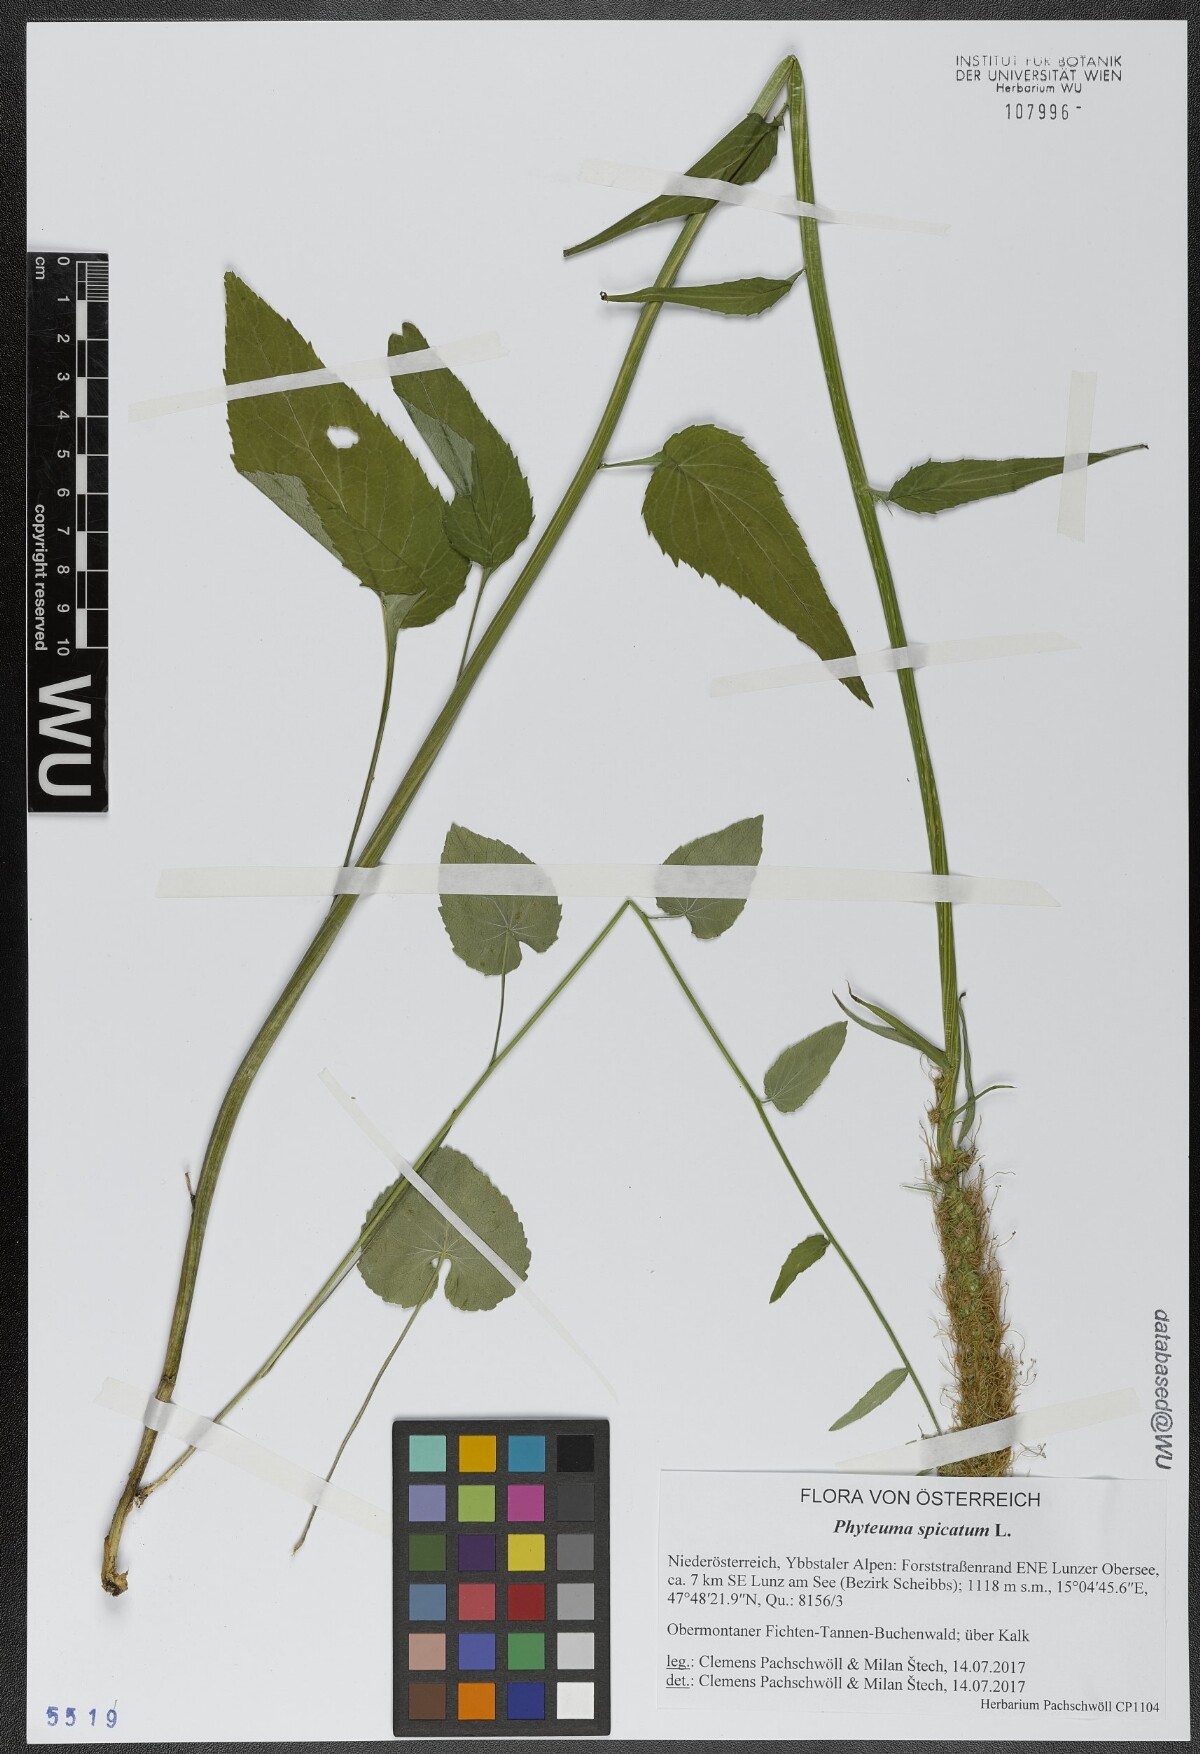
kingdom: Plantae
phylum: Tracheophyta
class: Magnoliopsida
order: Asterales
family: Campanulaceae
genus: Phyteuma
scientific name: Phyteuma spicatum
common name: Spiked rampion
